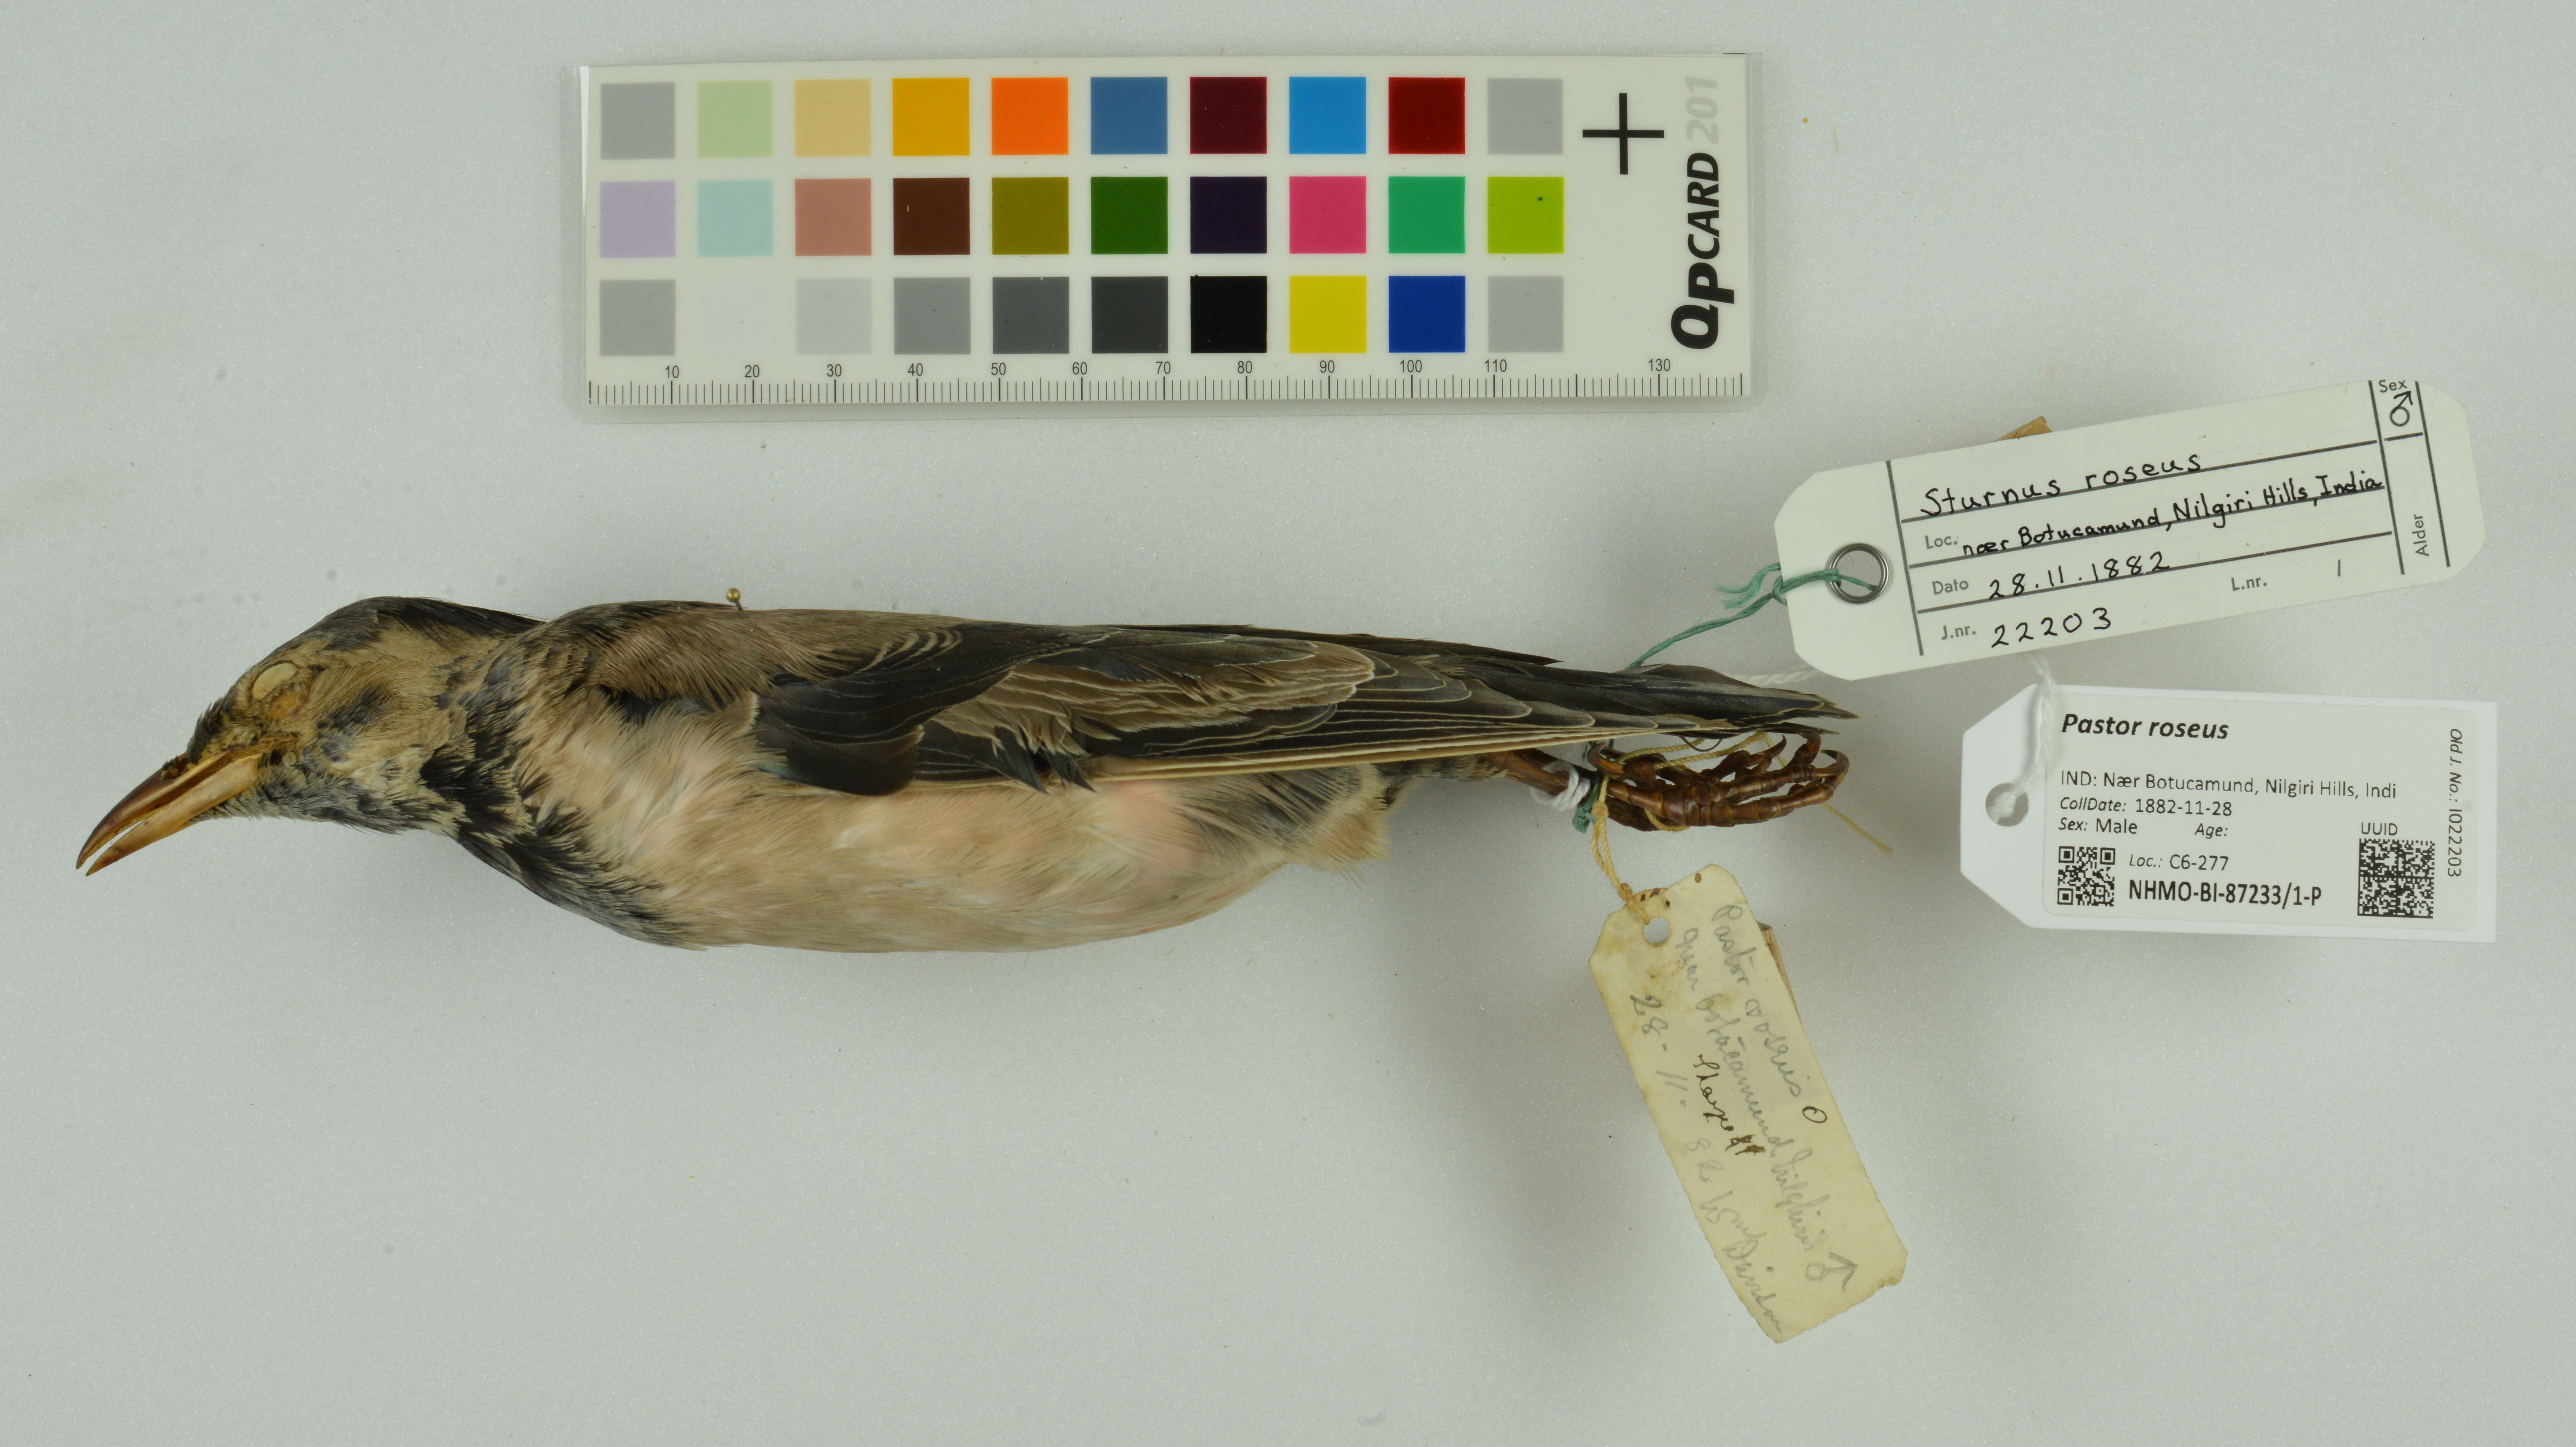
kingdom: Animalia
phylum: Chordata
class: Aves
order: Passeriformes
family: Sturnidae
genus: Pastor
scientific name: Pastor roseus
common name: Rosy starling
